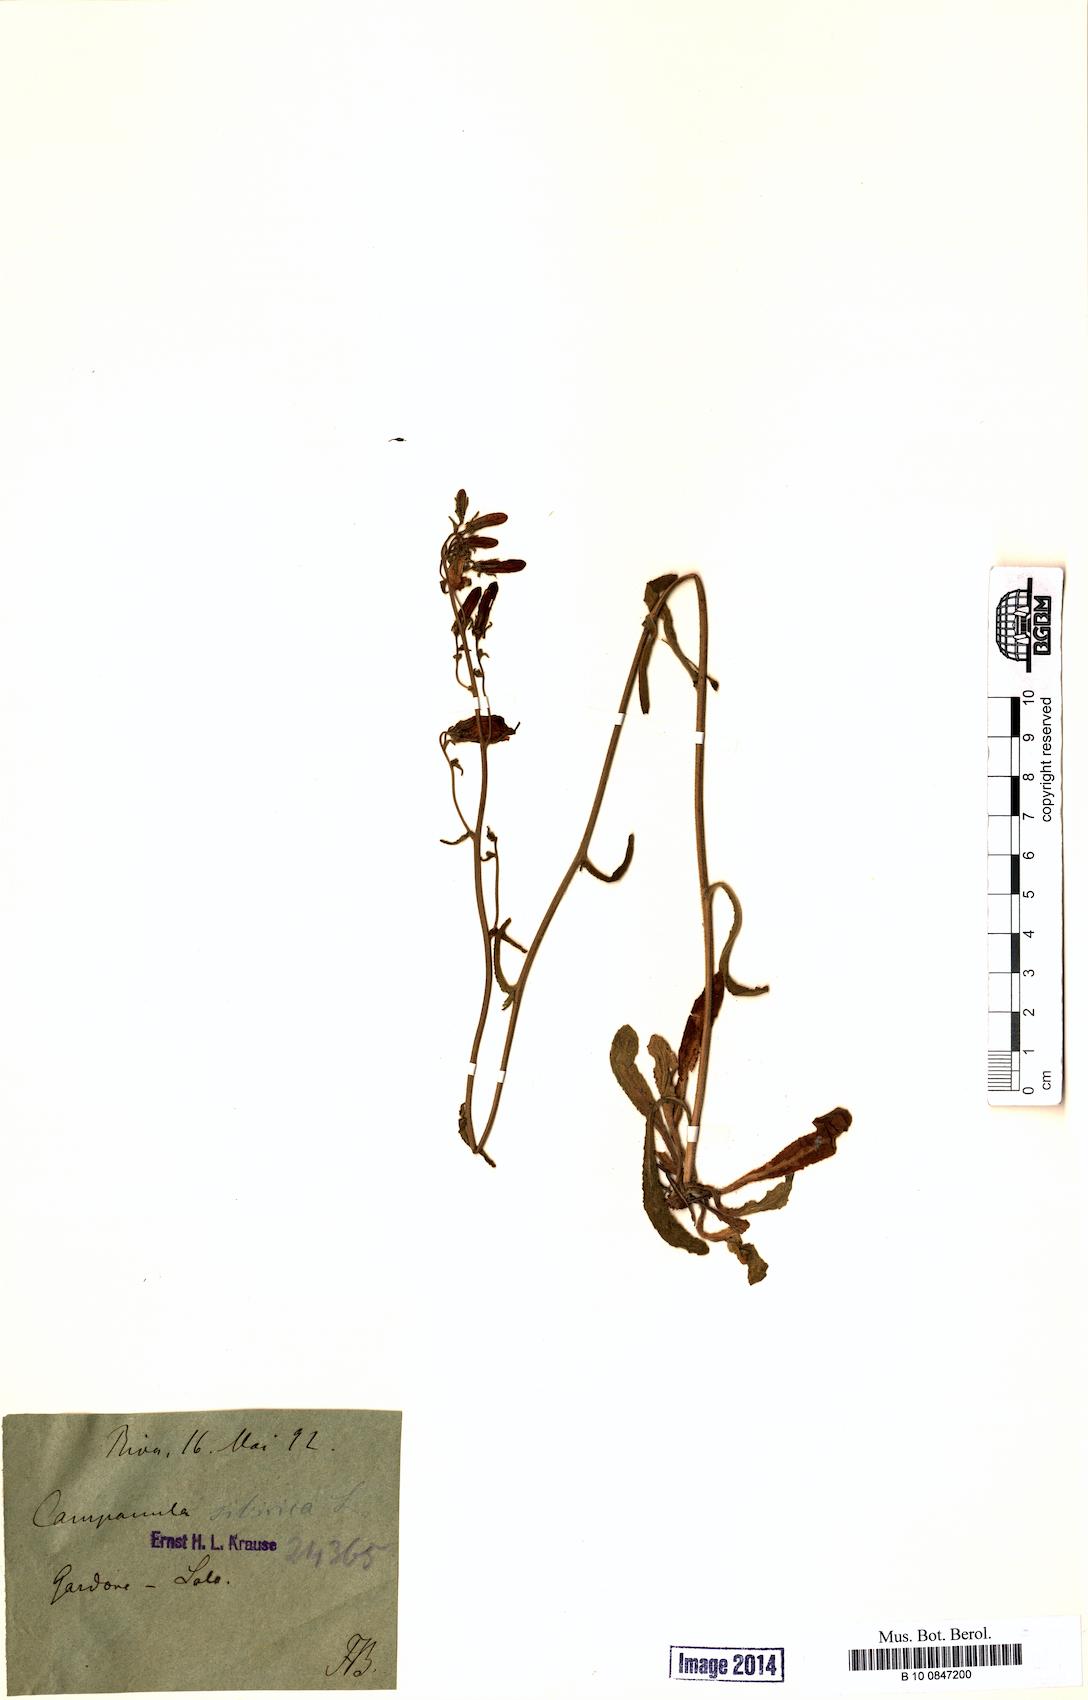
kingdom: Plantae
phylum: Tracheophyta
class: Magnoliopsida
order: Asterales
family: Campanulaceae
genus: Campanula
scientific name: Campanula sibirica
